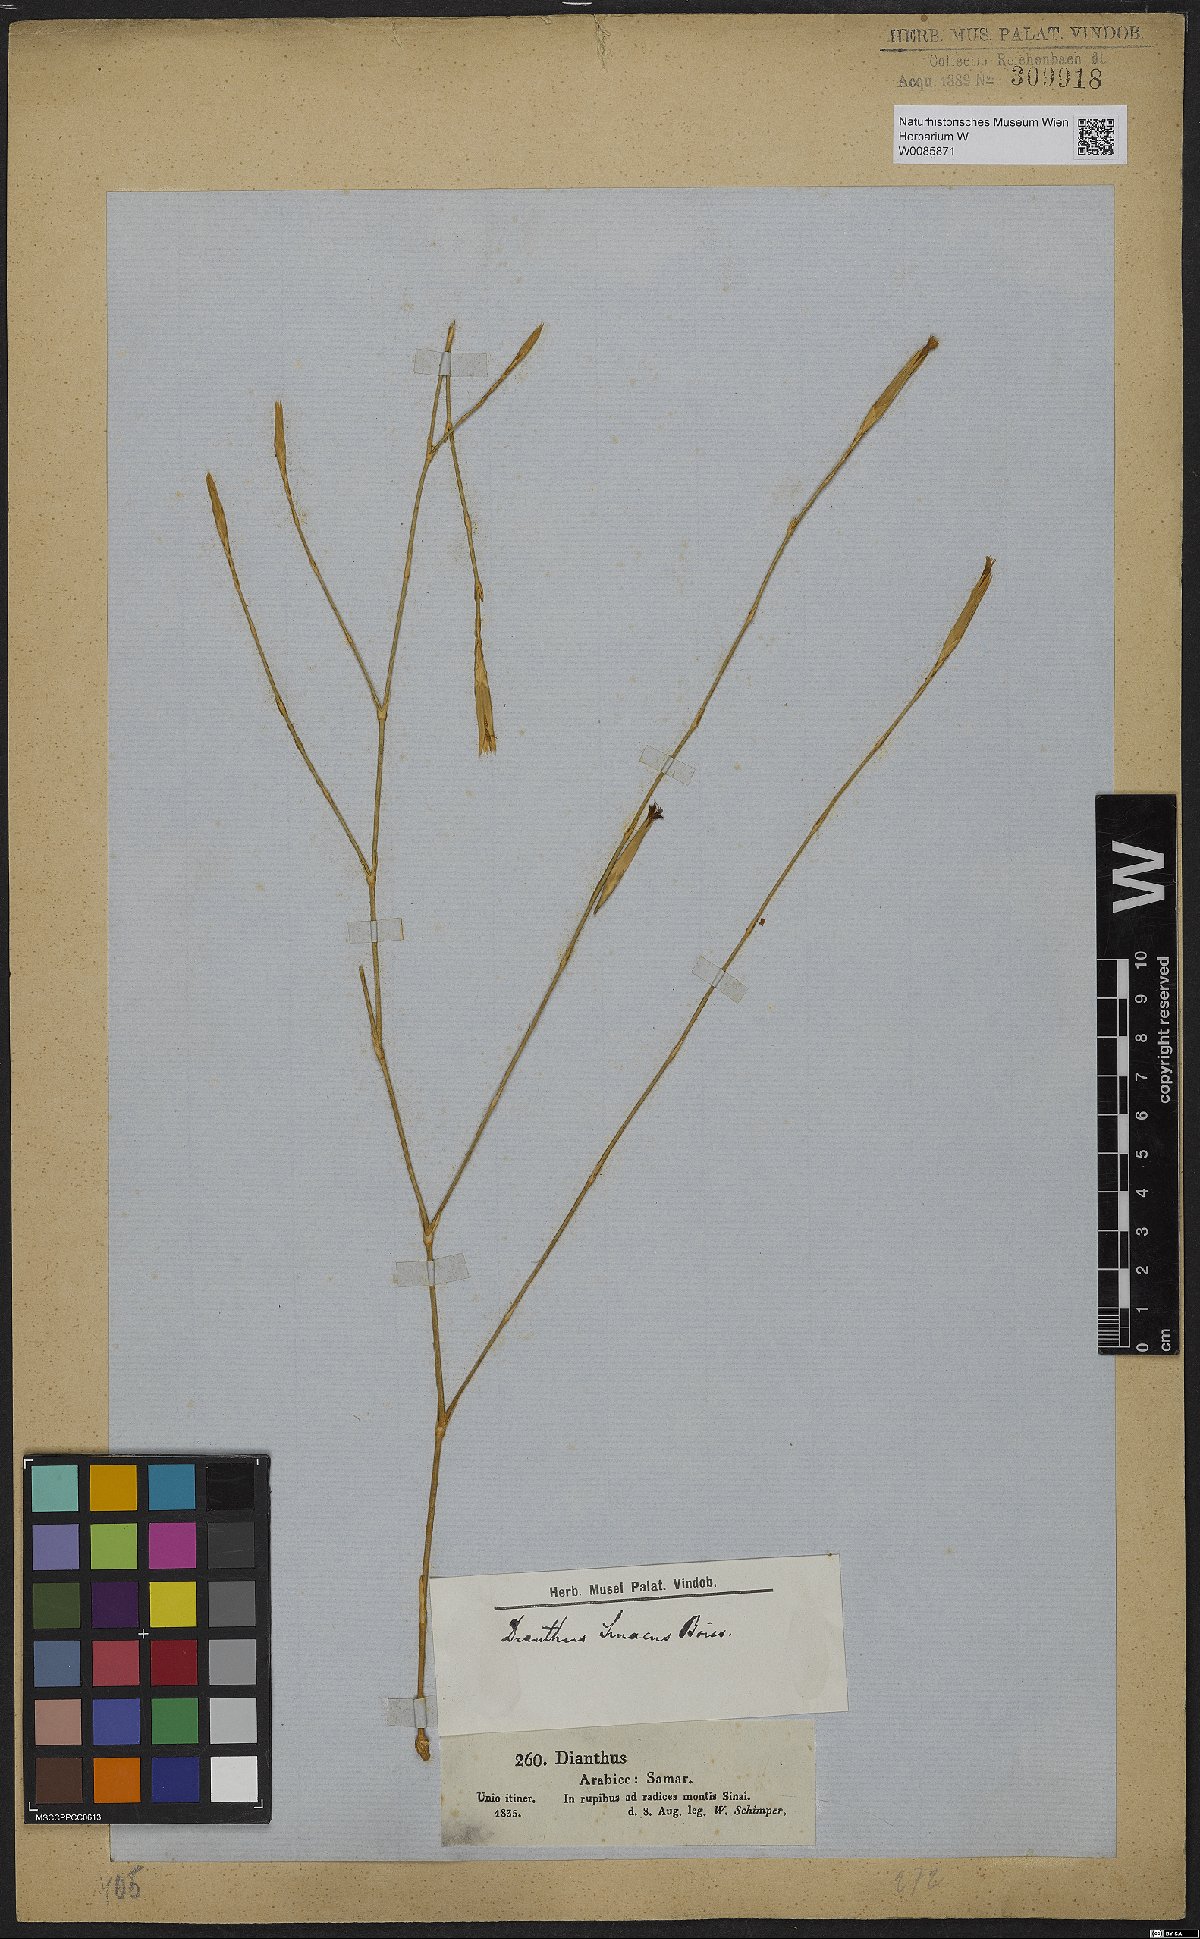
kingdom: Plantae
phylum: Tracheophyta
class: Magnoliopsida
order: Caryophyllales
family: Caryophyllaceae
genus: Dianthus
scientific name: Dianthus sinaicus
